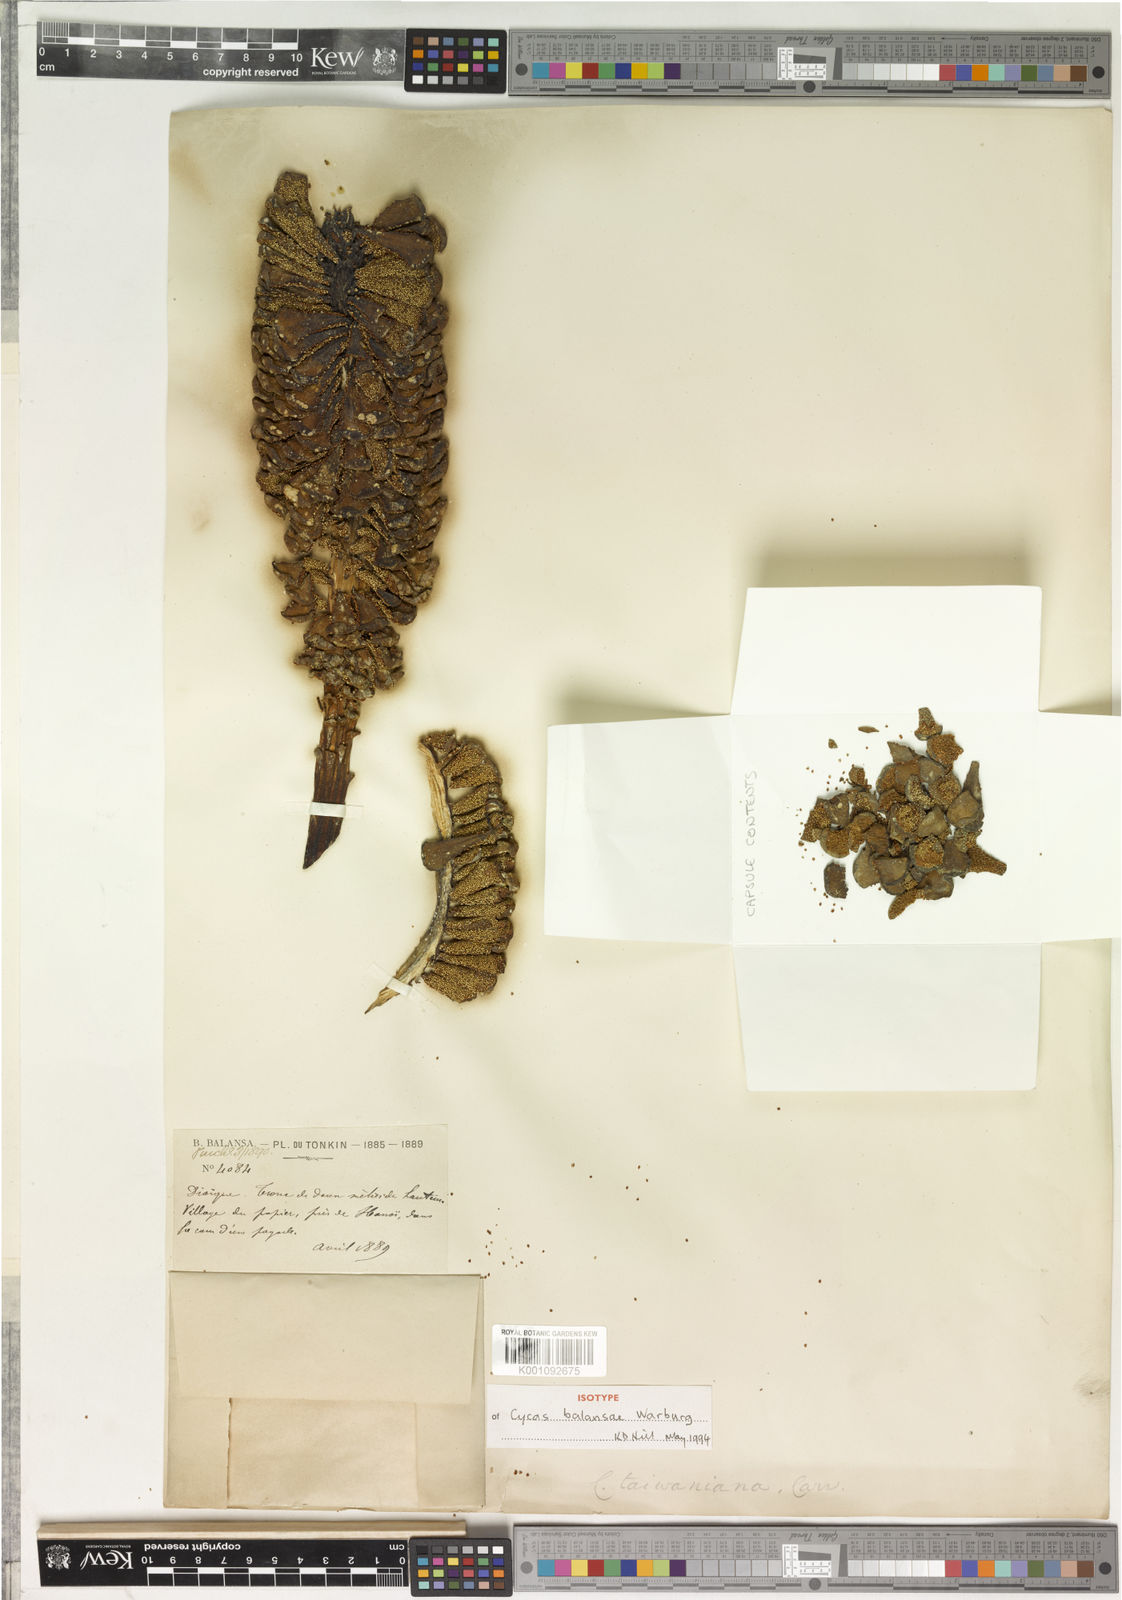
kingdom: Plantae
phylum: Tracheophyta
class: Cycadopsida
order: Cycadales
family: Cycadaceae
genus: Cycas
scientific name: Cycas taiwaniana
